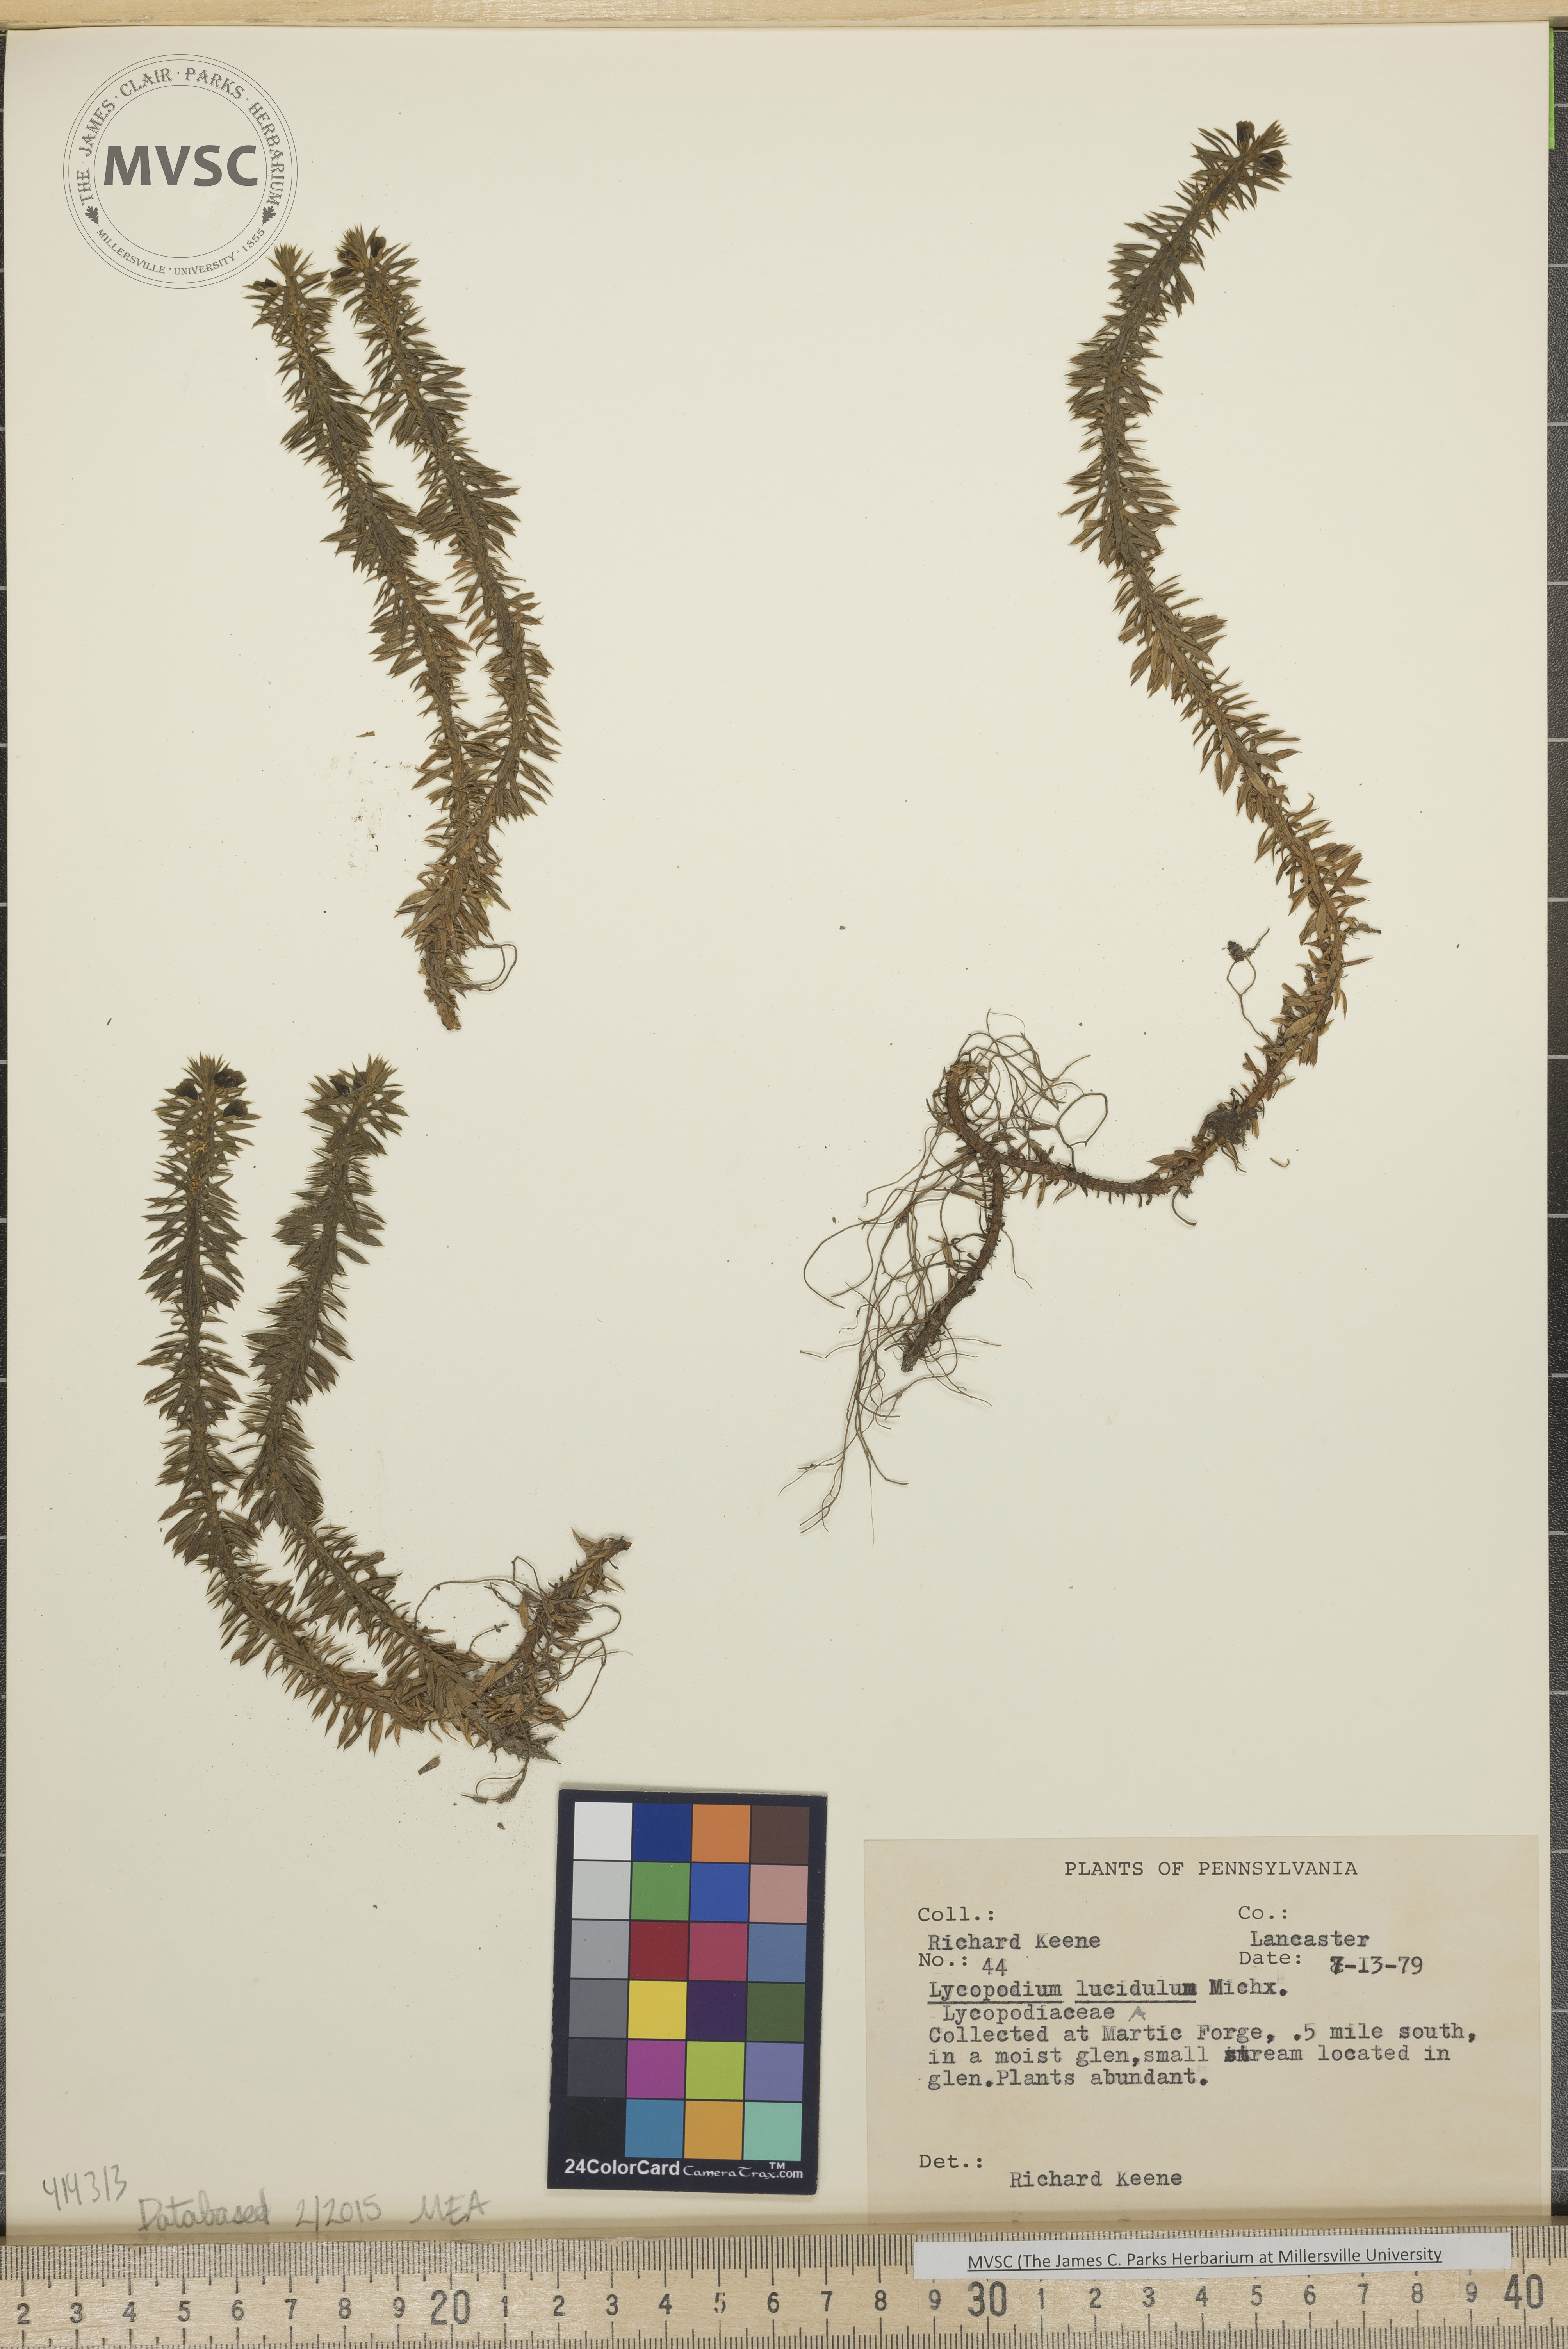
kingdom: Plantae
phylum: Tracheophyta
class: Lycopodiopsida
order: Lycopodiales
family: Lycopodiaceae
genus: Huperzia
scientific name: Huperzia lucidula
